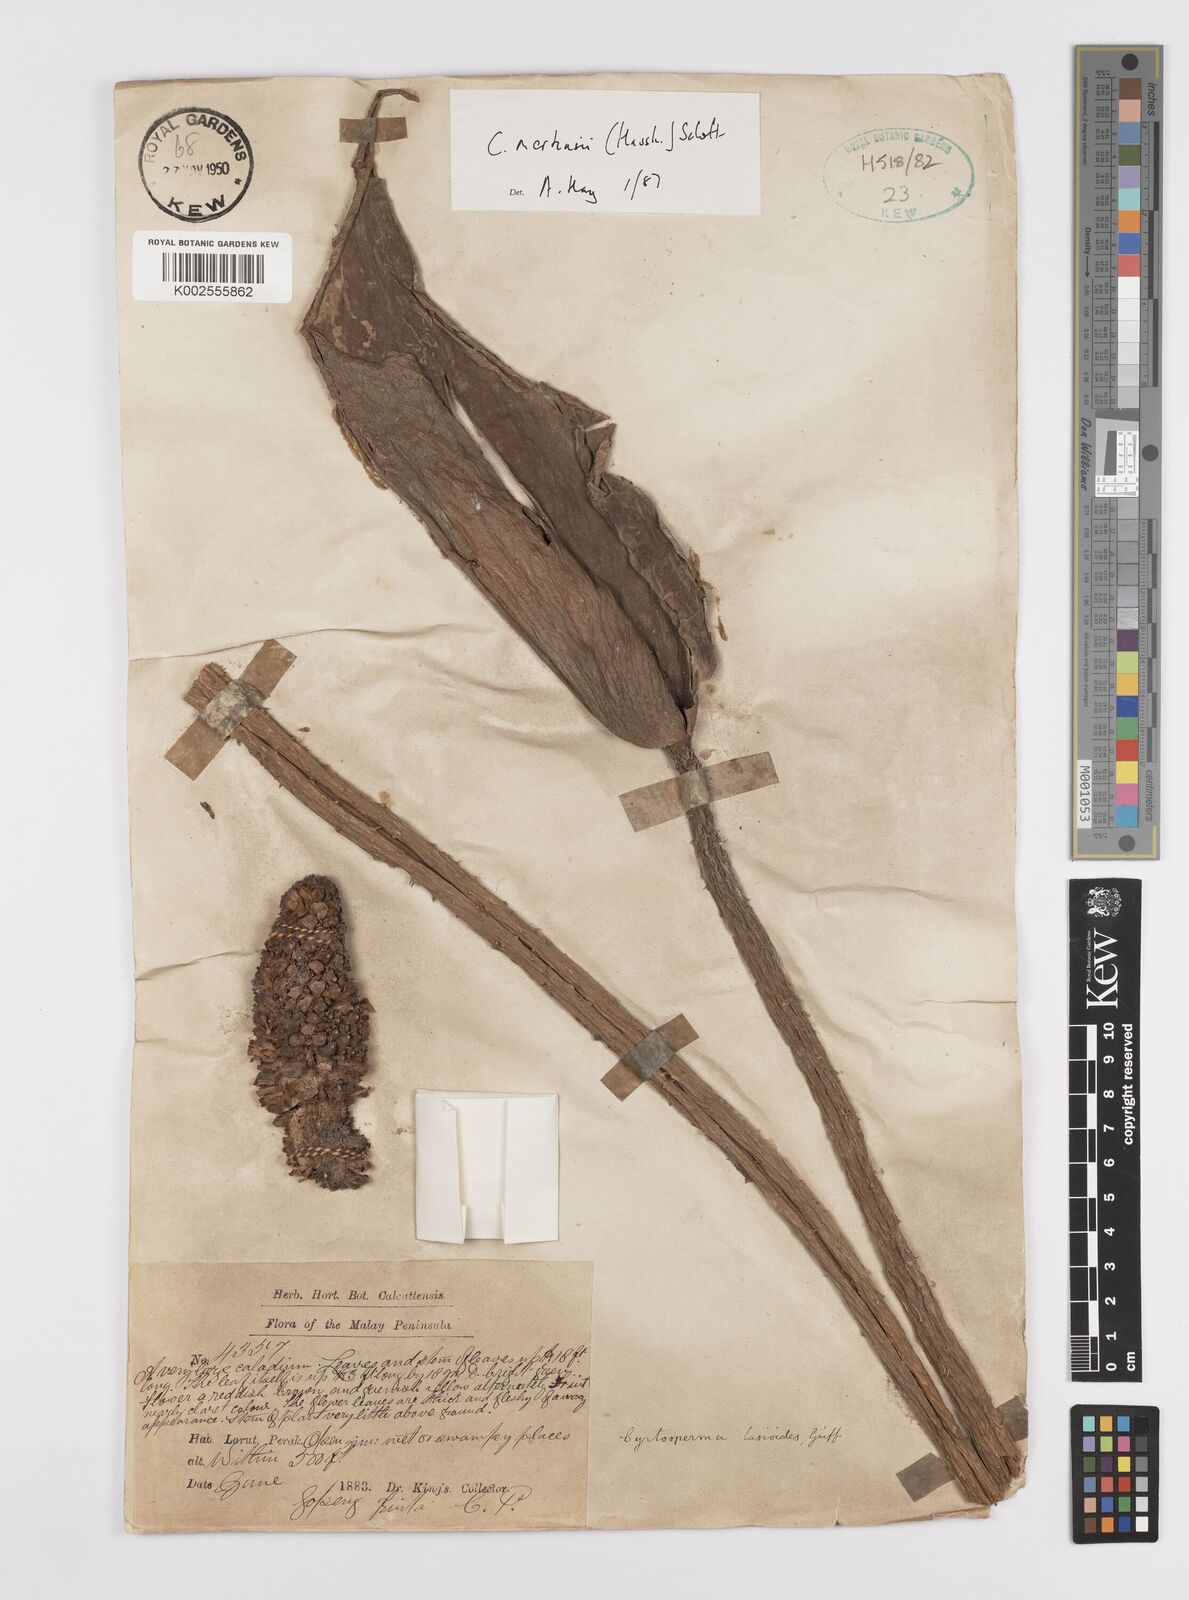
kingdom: Plantae
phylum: Tracheophyta
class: Liliopsida
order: Alismatales
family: Araceae
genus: Cyrtosperma
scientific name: Cyrtosperma merkusii
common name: Giant swamp-taro
